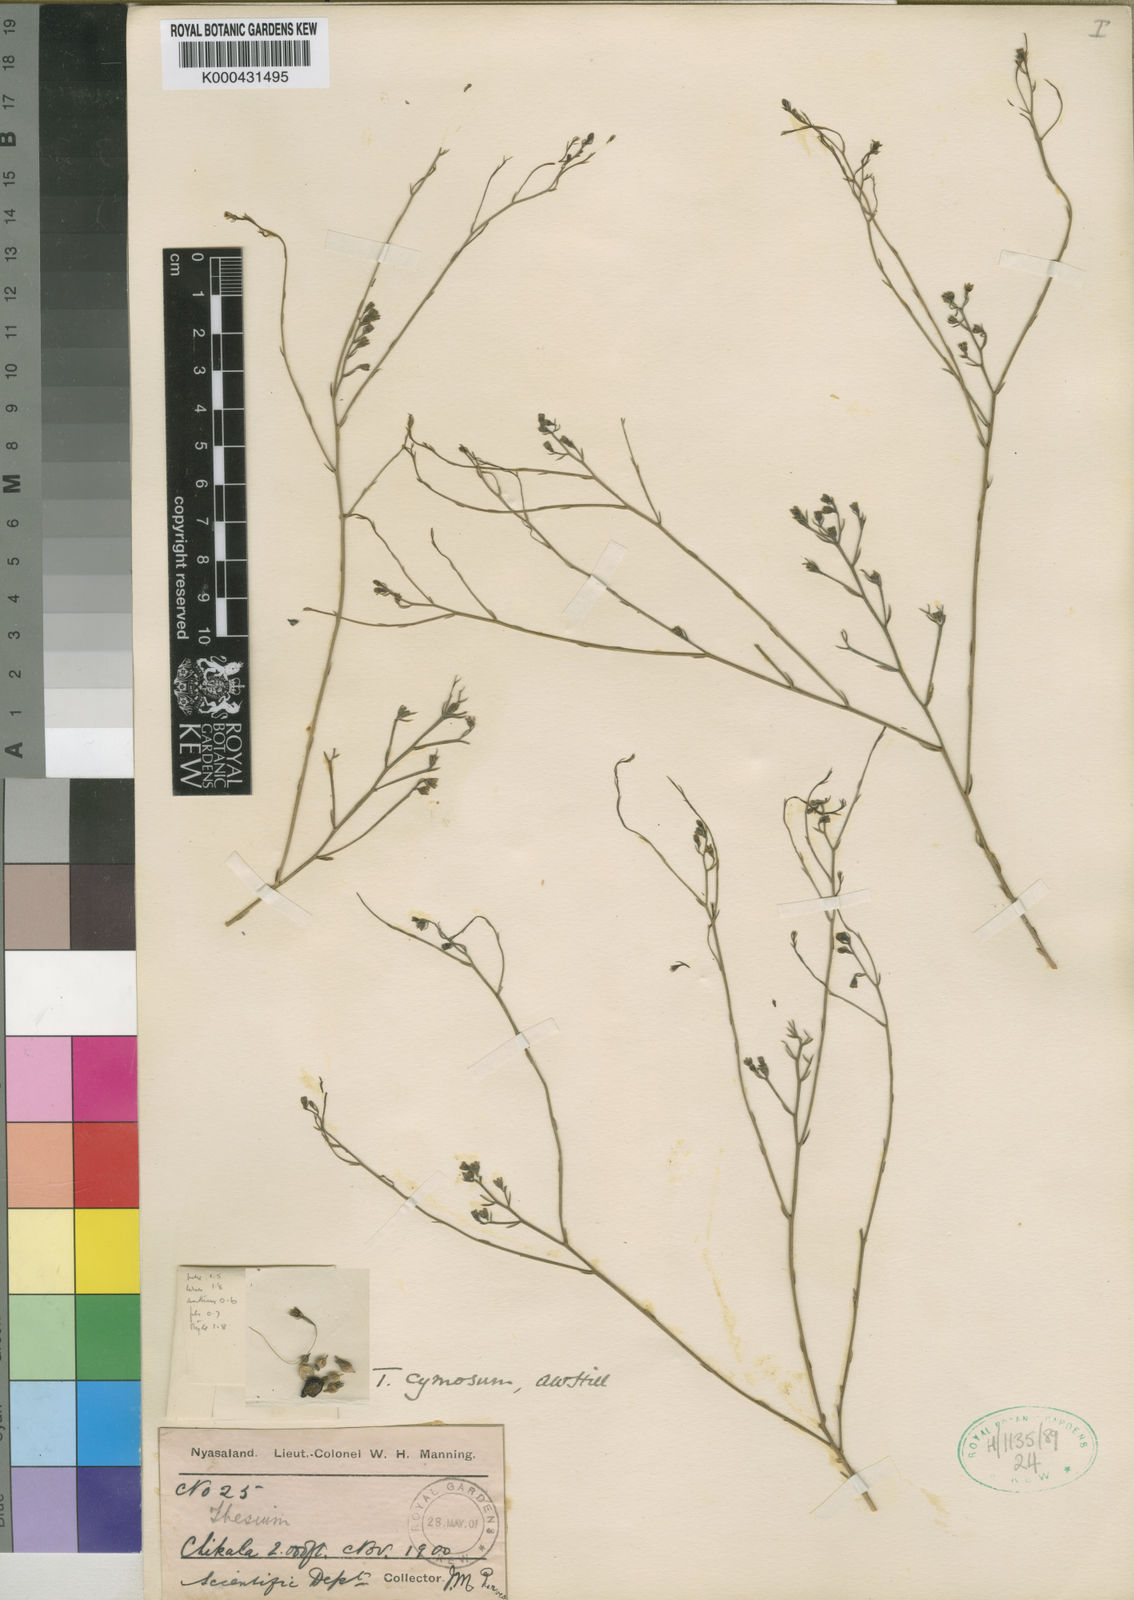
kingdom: Plantae
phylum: Tracheophyta
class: Magnoliopsida
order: Santalales
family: Thesiaceae
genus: Thesium
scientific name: Thesium cymosum
